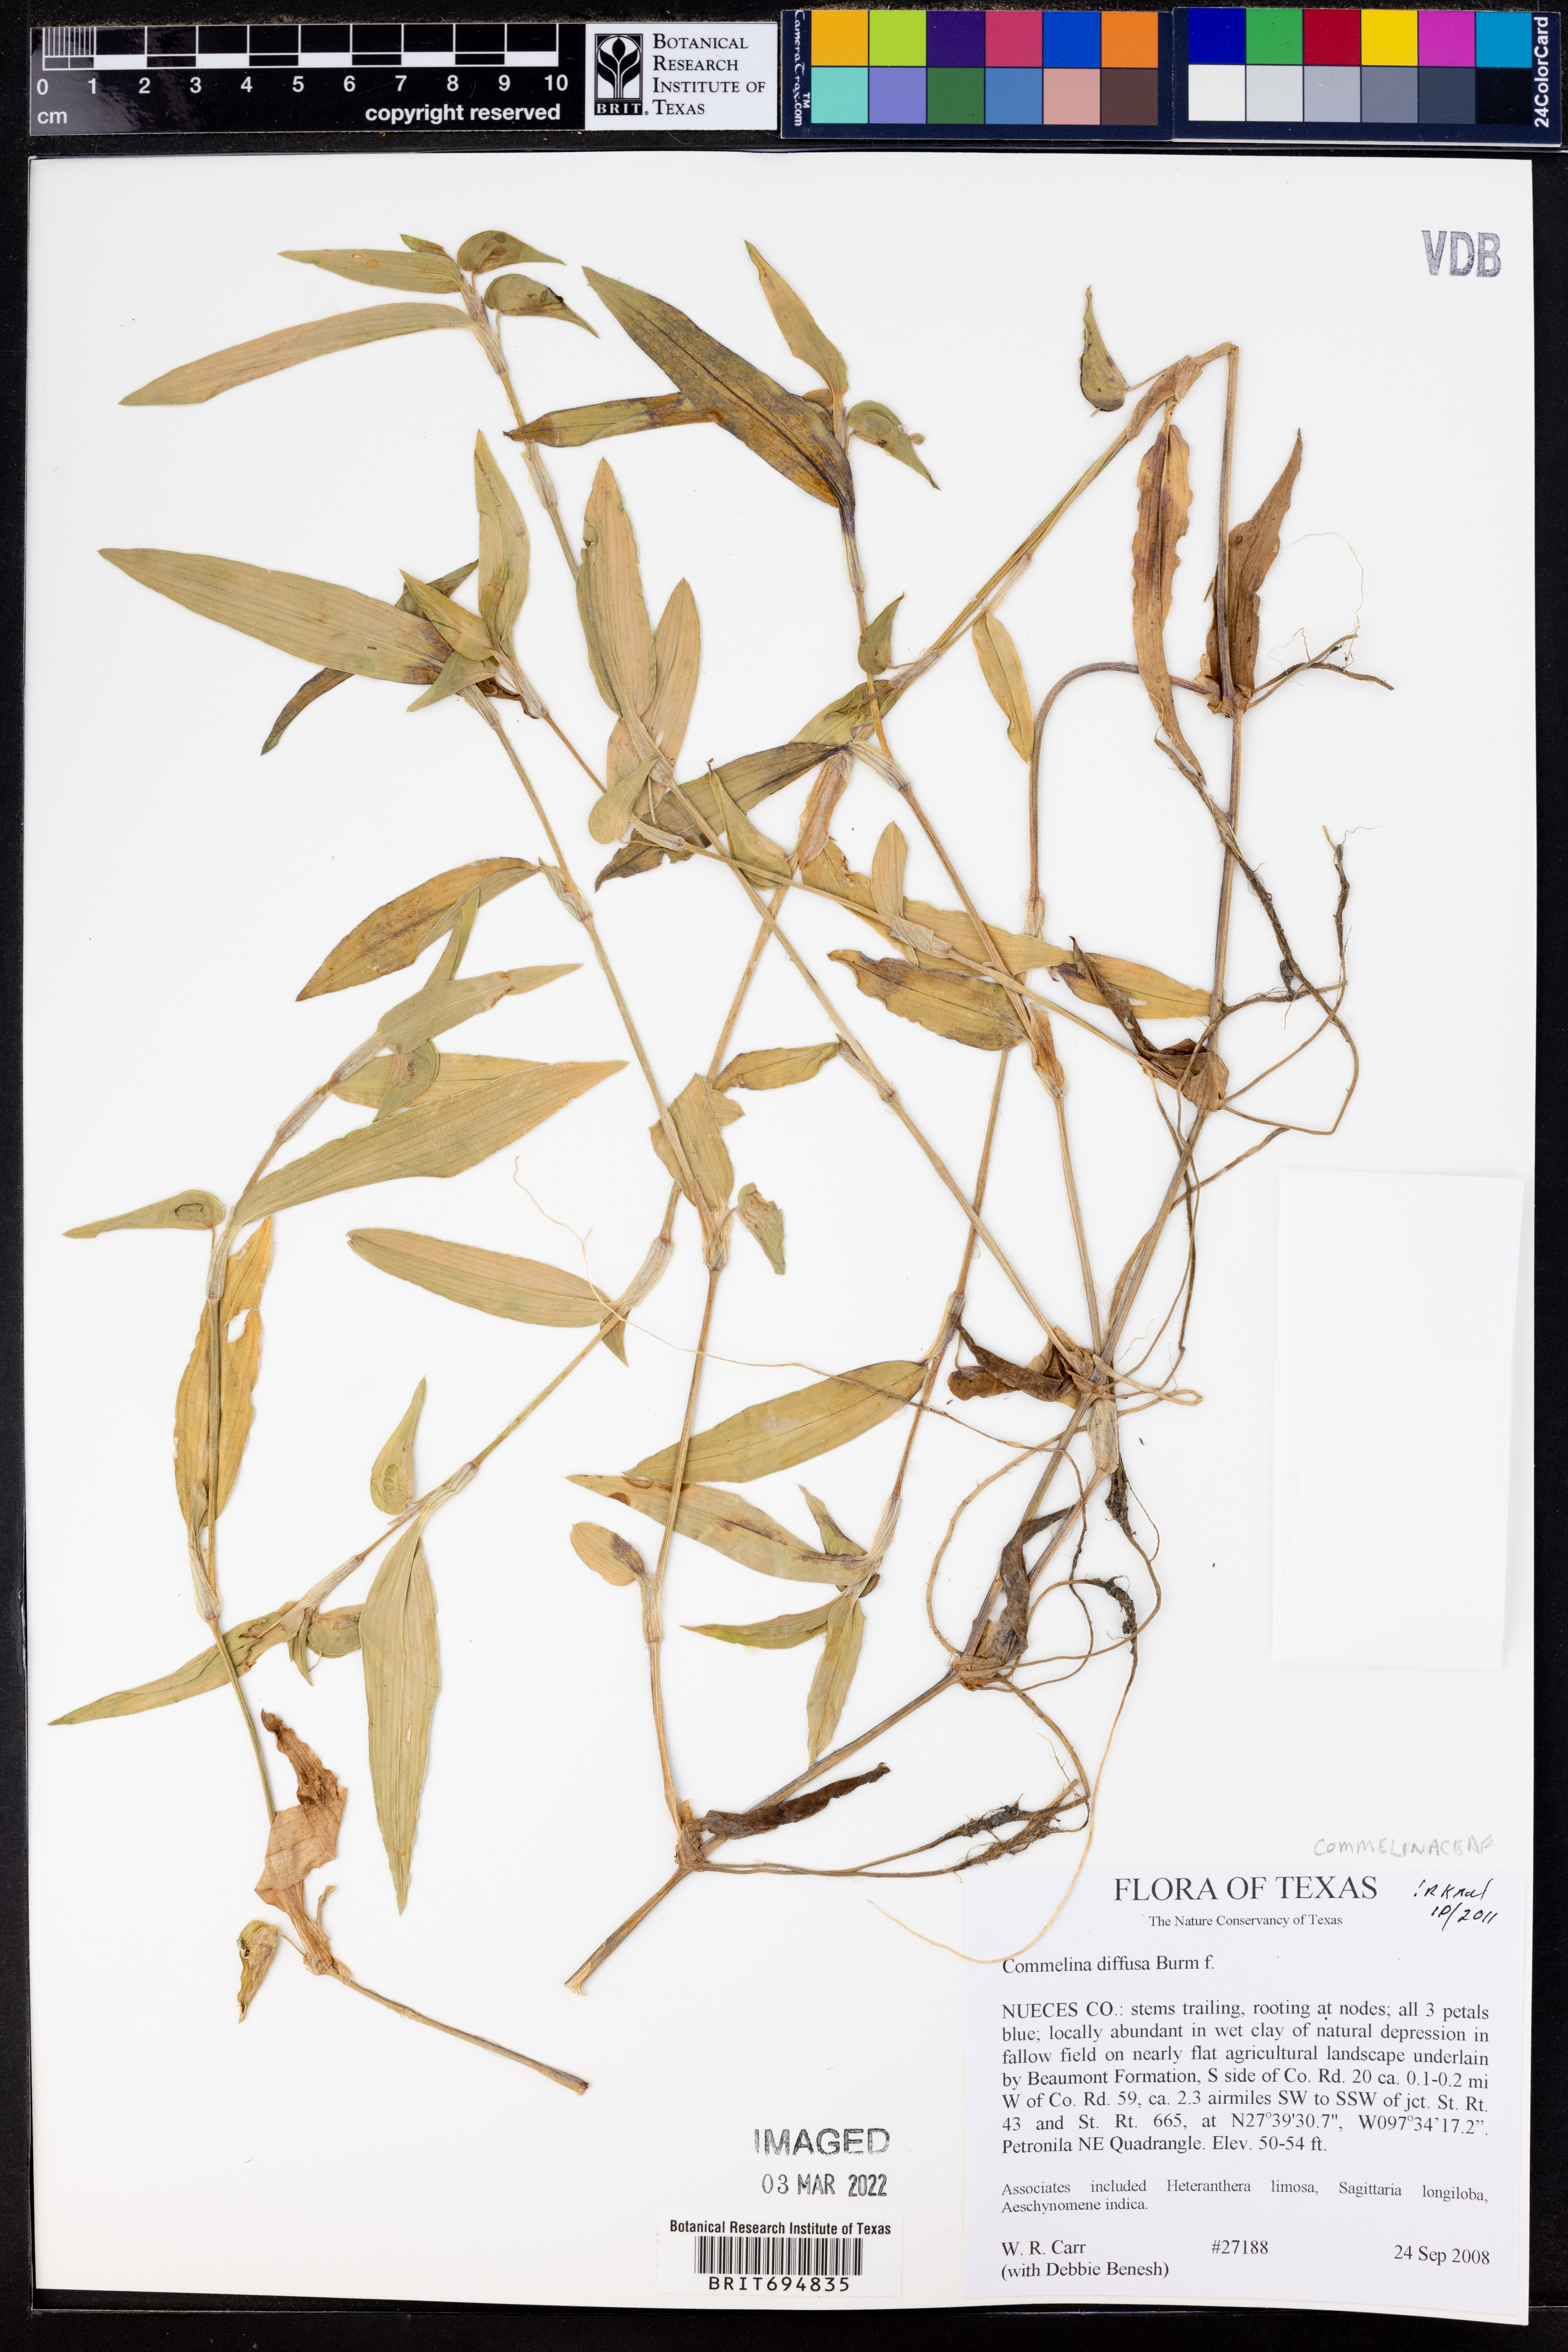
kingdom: Plantae
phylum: Tracheophyta
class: Liliopsida
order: Commelinales
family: Commelinaceae
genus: Commelina
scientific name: Commelina diffusa
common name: Climbing dayflower
